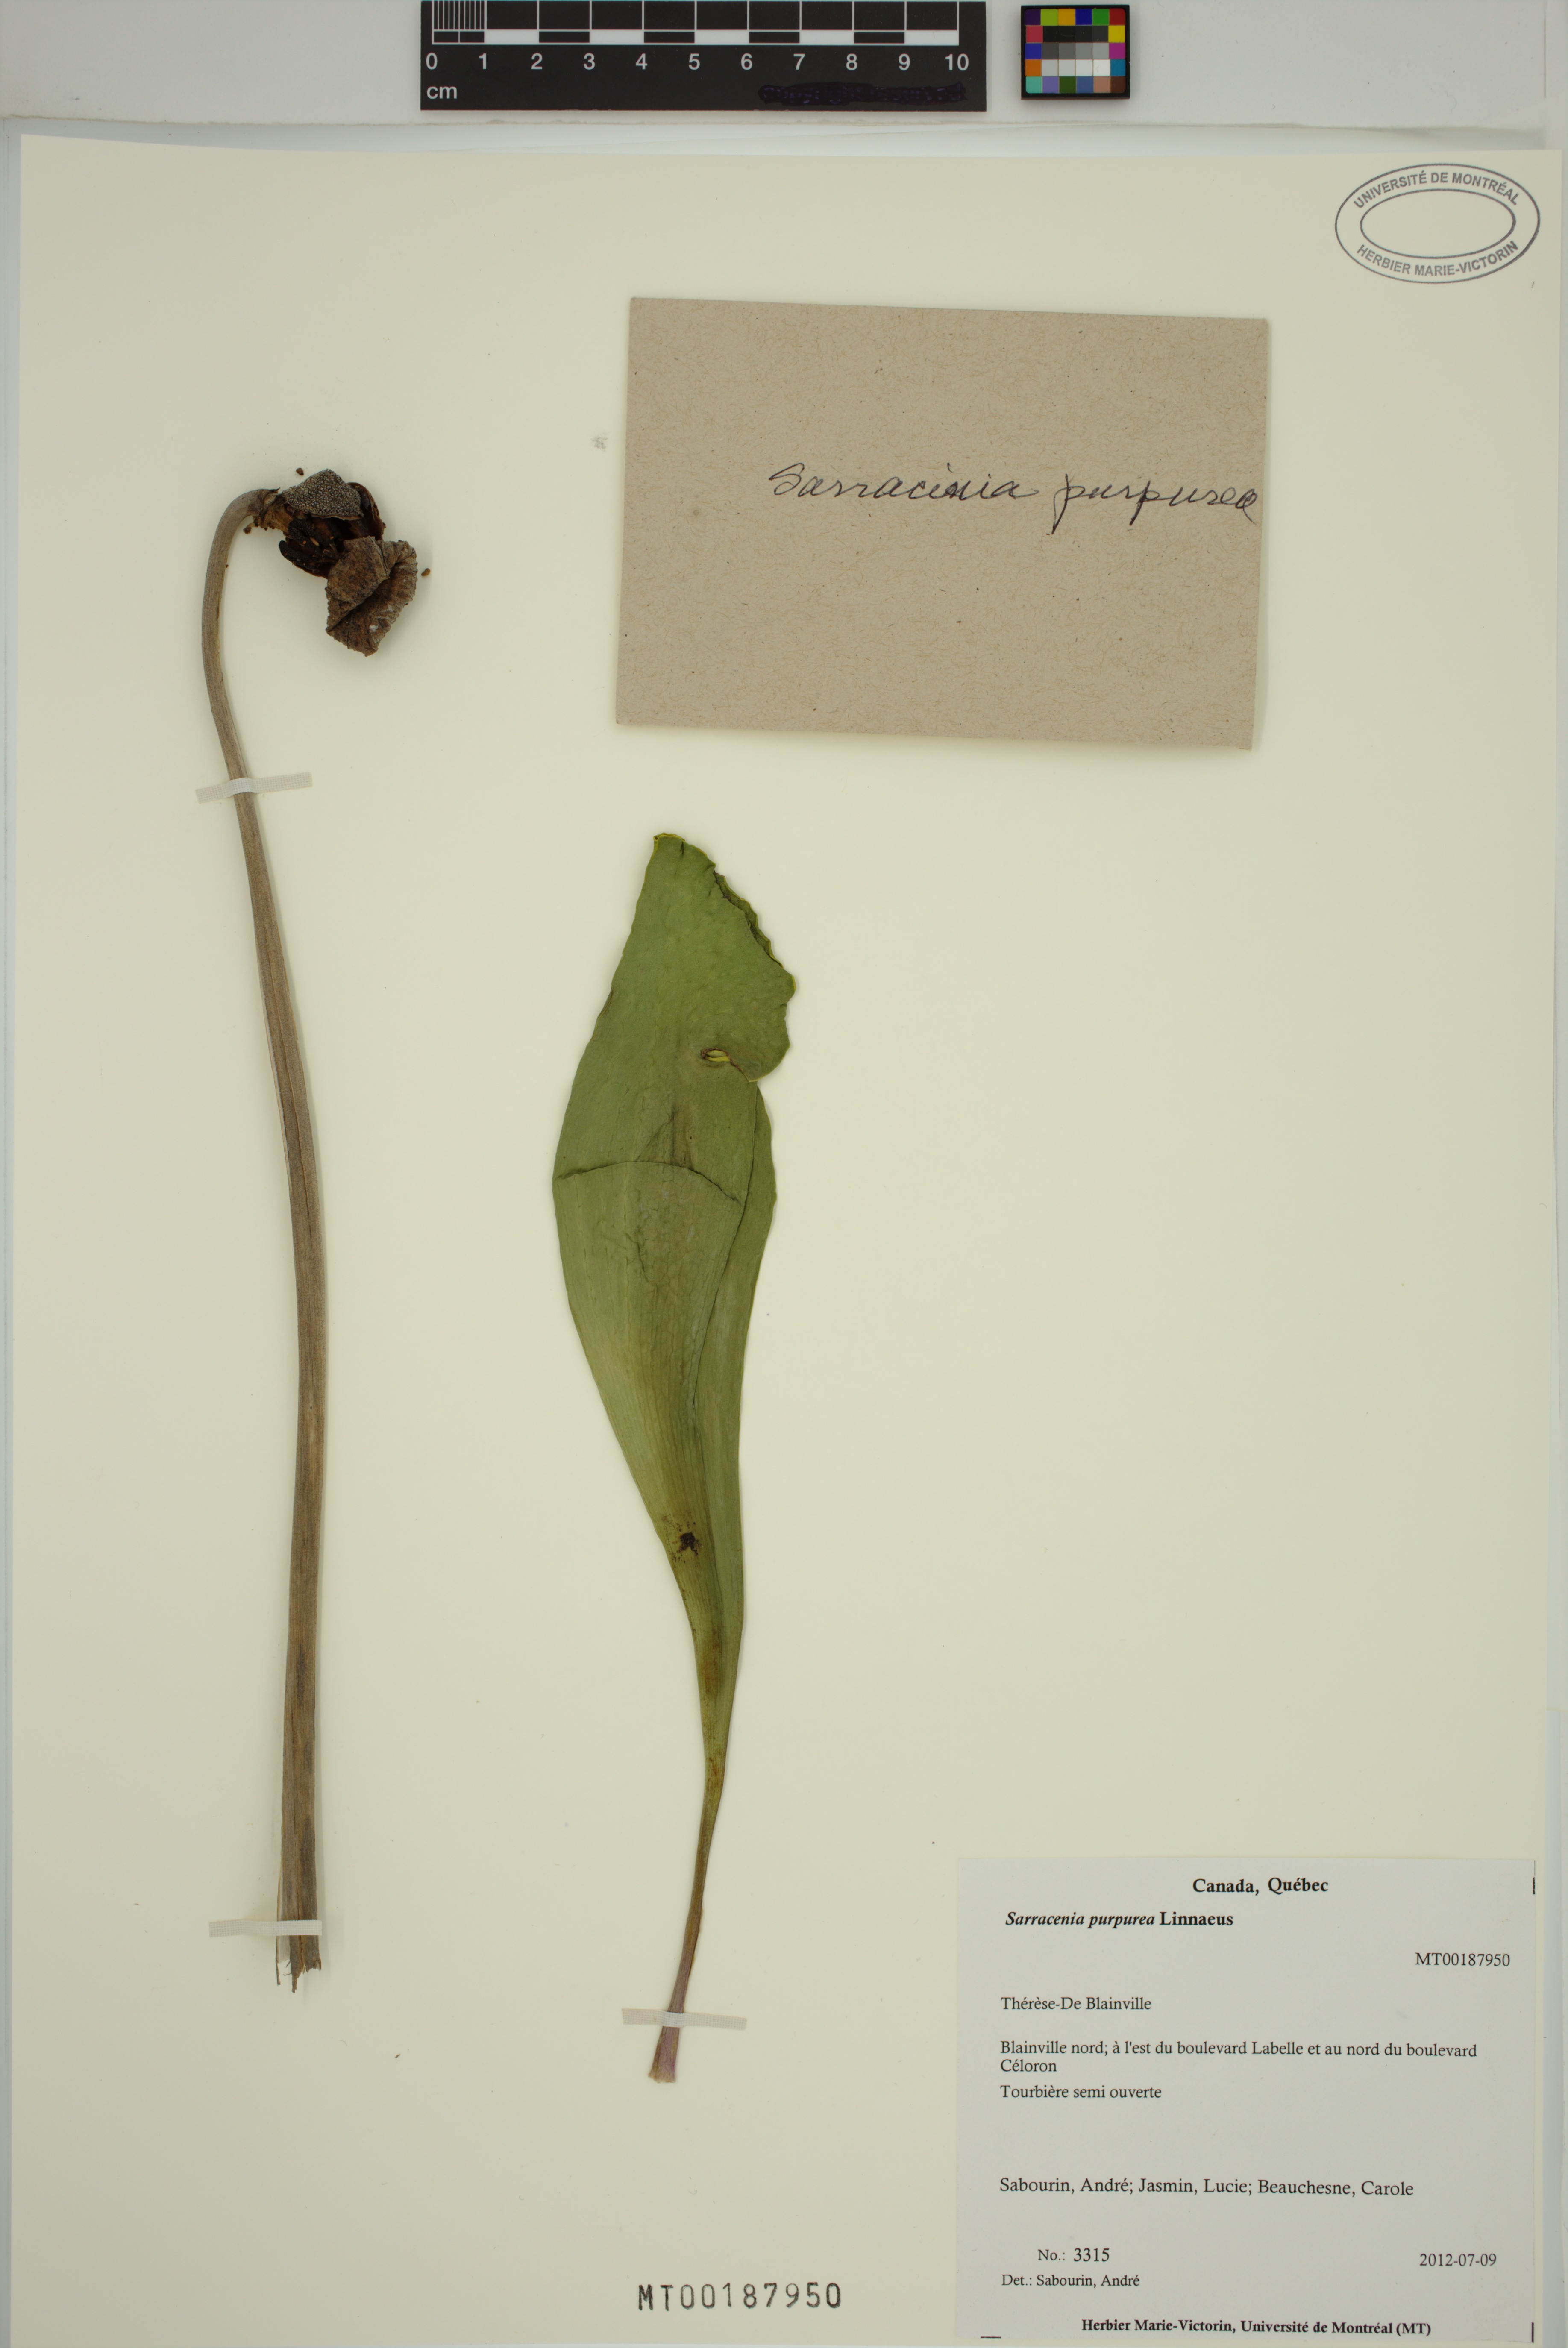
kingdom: Plantae
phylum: Tracheophyta
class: Magnoliopsida
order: Ericales
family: Sarraceniaceae
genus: Sarracenia
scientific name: Sarracenia purpurea
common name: Pitcherplant
